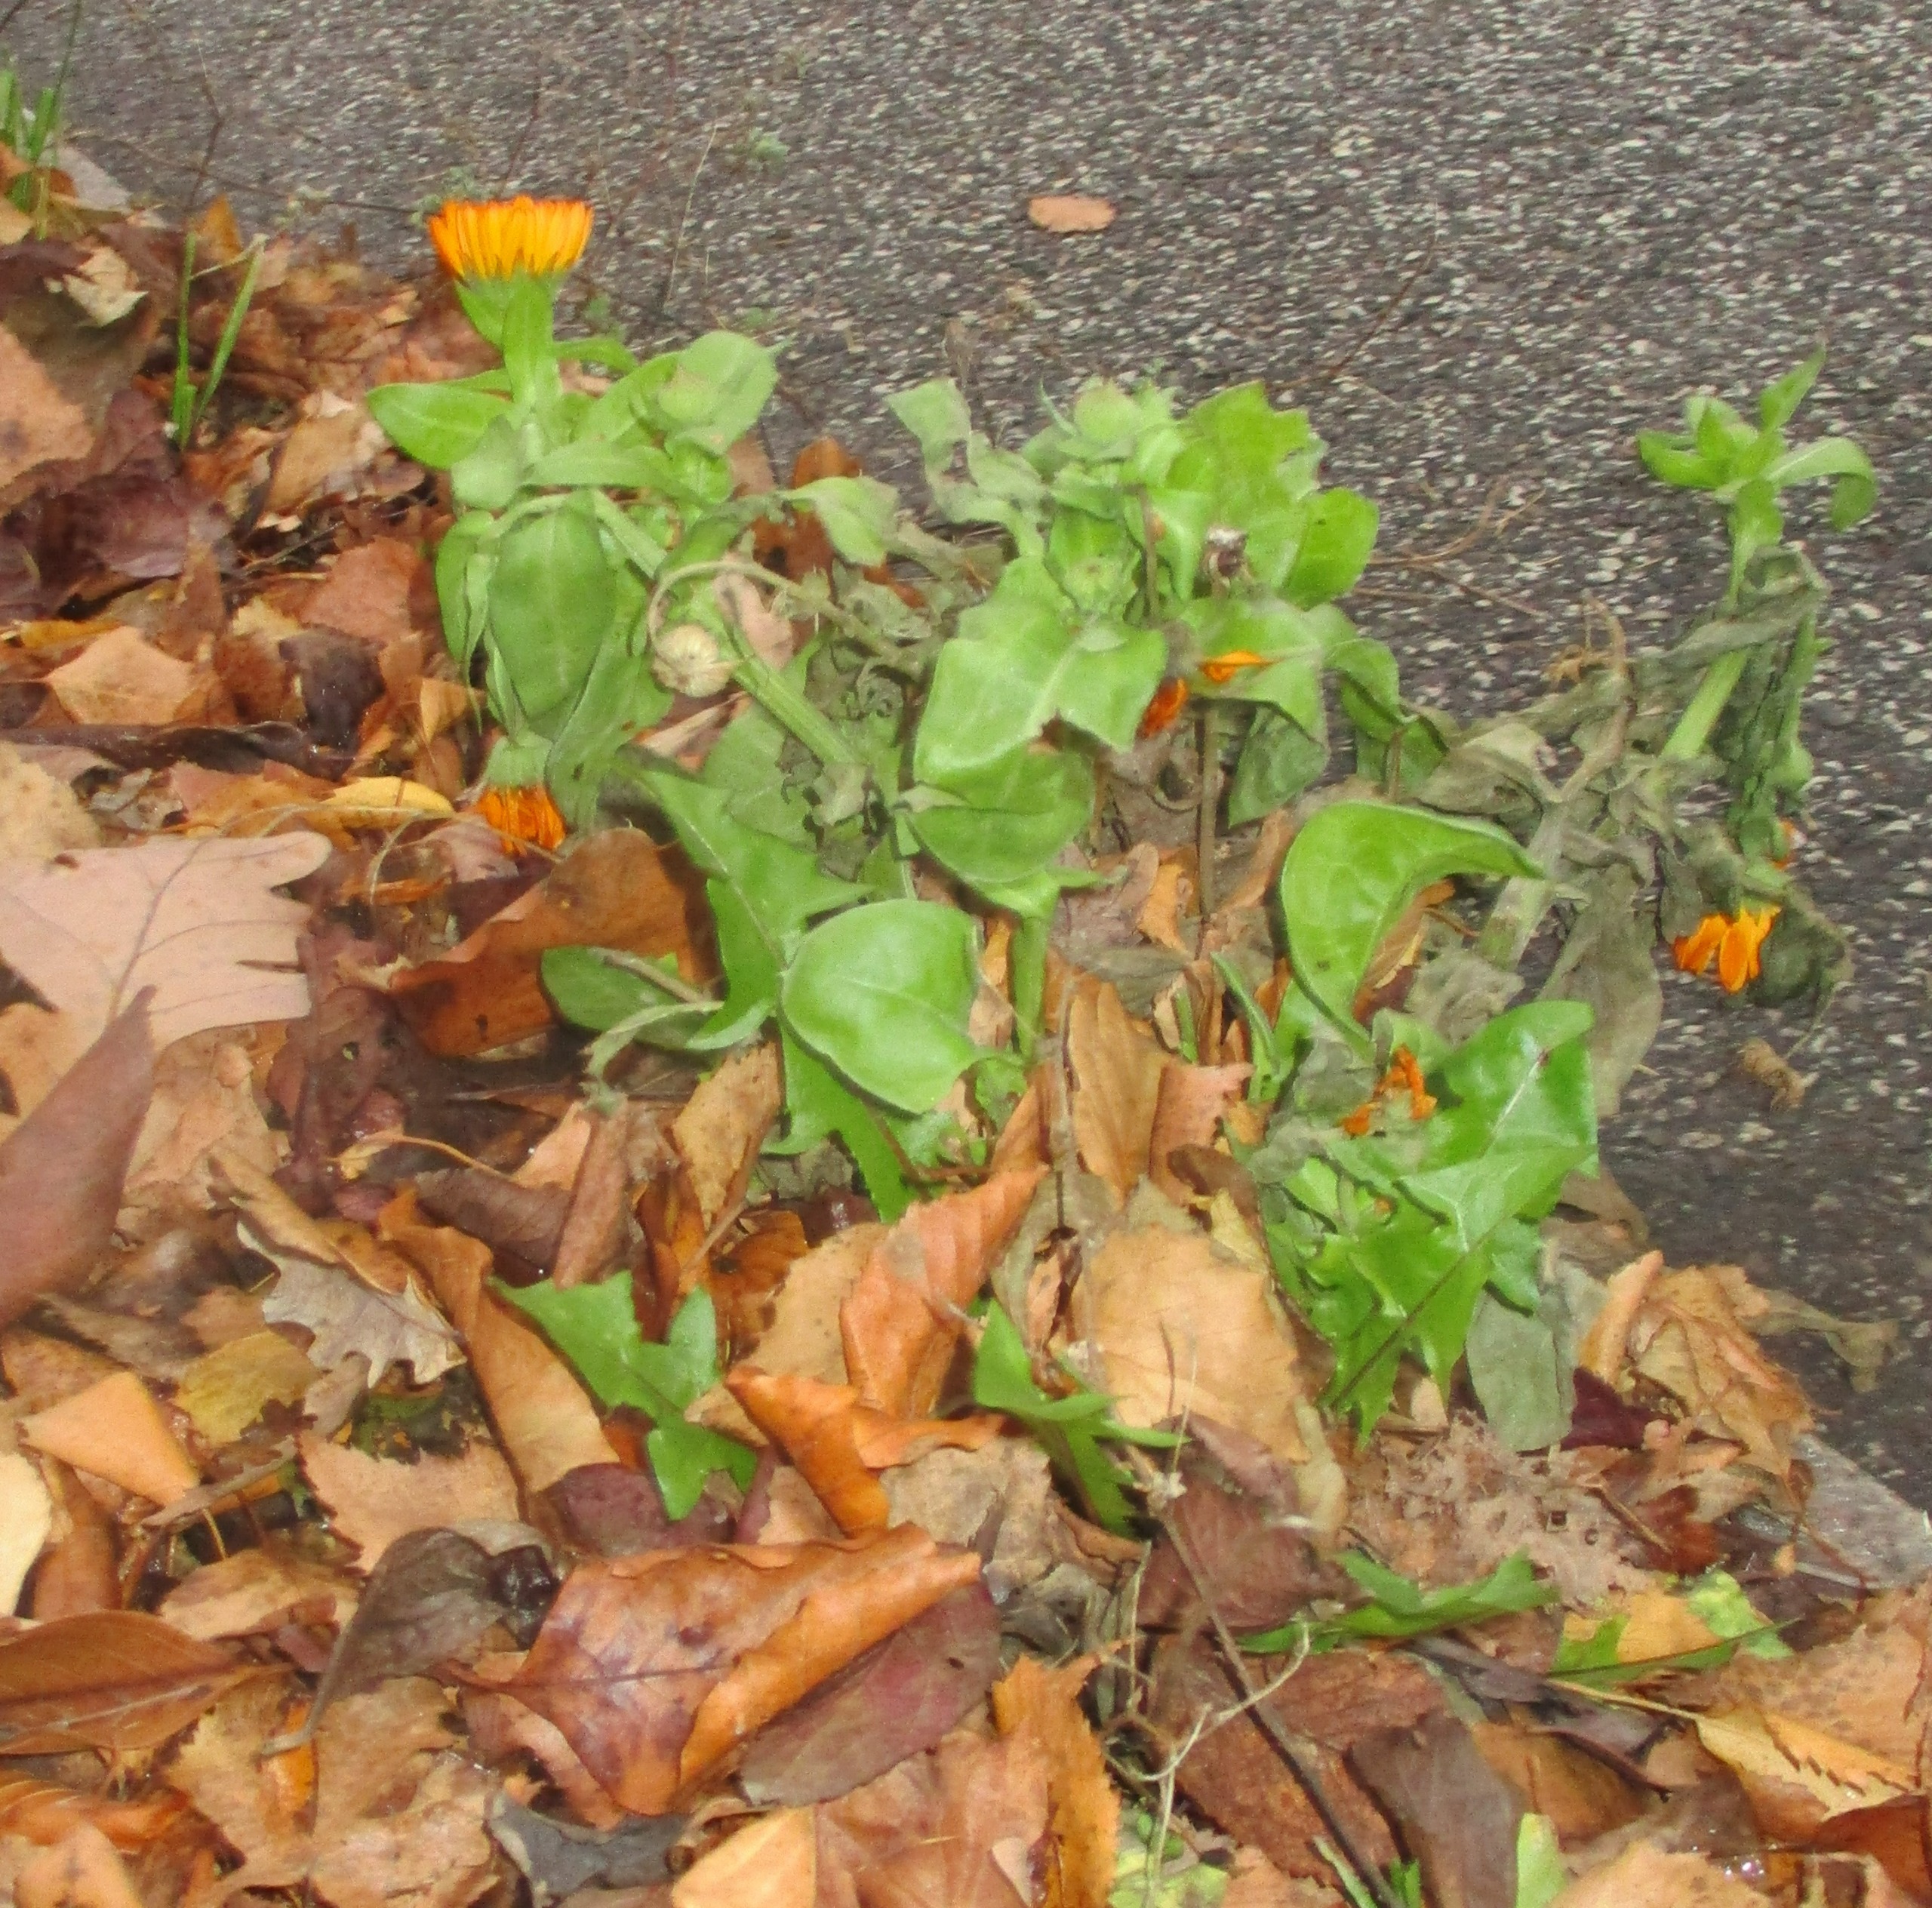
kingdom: Plantae
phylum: Tracheophyta
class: Magnoliopsida
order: Asterales
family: Asteraceae
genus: Calendula
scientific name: Calendula officinalis
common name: Have-morgenfrue
